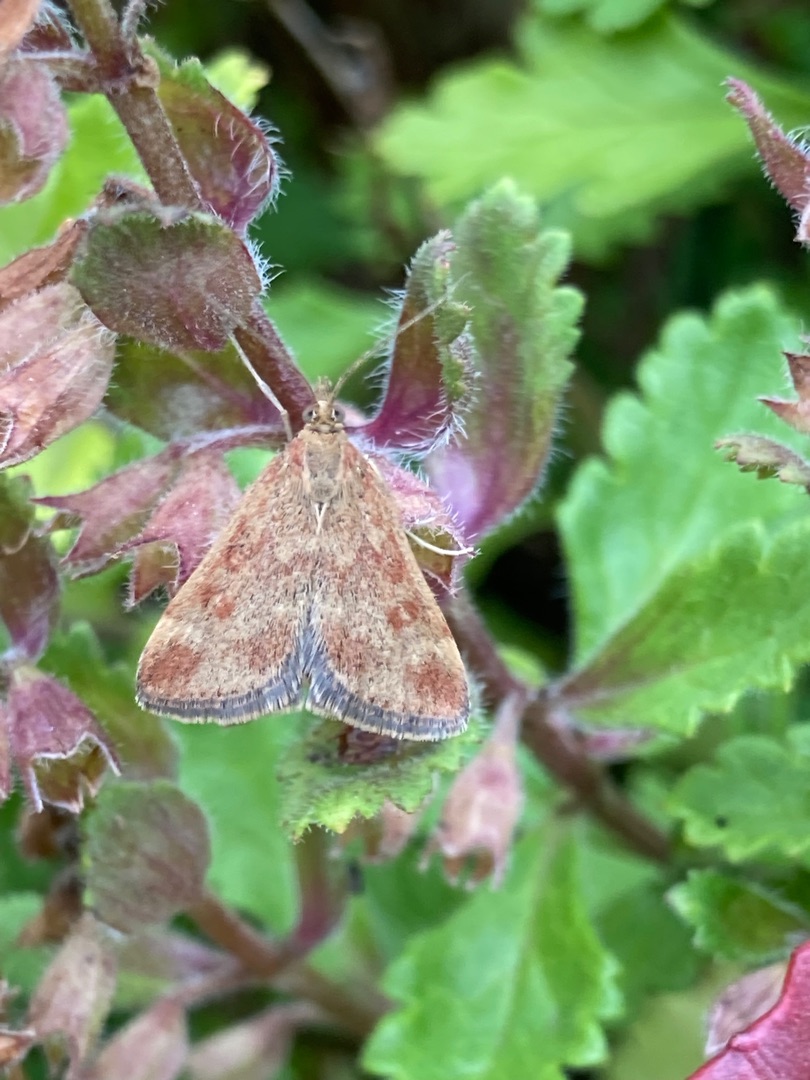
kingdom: Animalia
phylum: Arthropoda
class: Insecta
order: Lepidoptera
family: Crambidae
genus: Pyrausta
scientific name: Pyrausta despicata
